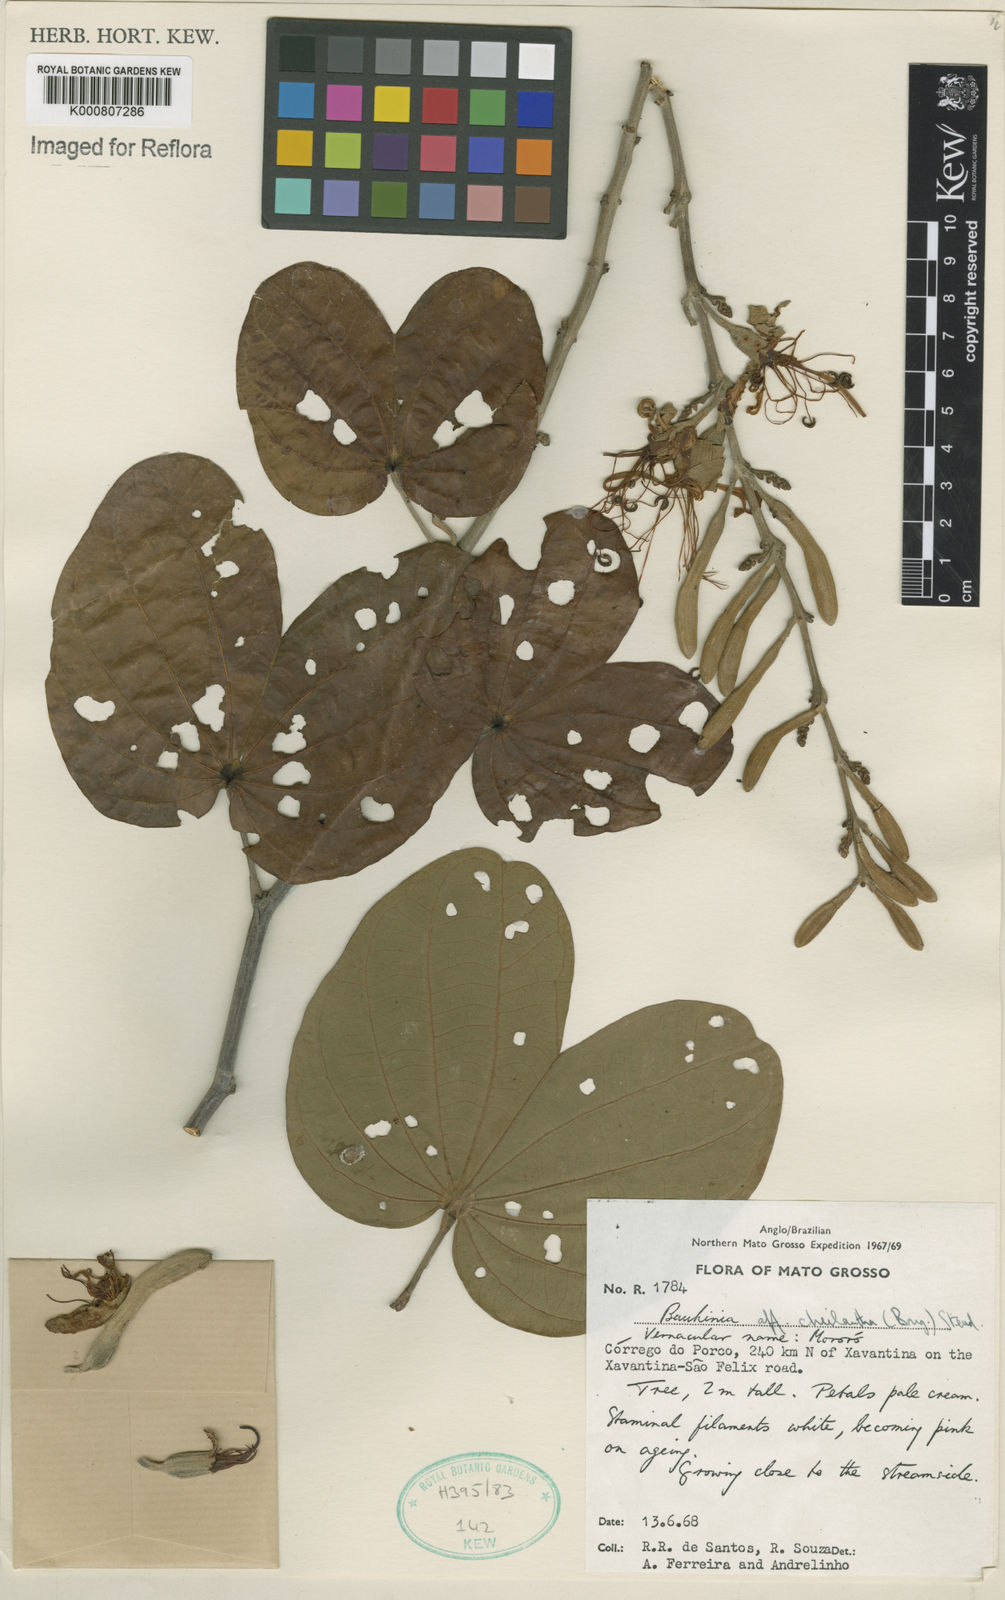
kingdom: Plantae
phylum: Tracheophyta
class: Magnoliopsida
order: Fabales
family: Fabaceae
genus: Bauhinia
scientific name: Bauhinia cheilantha
